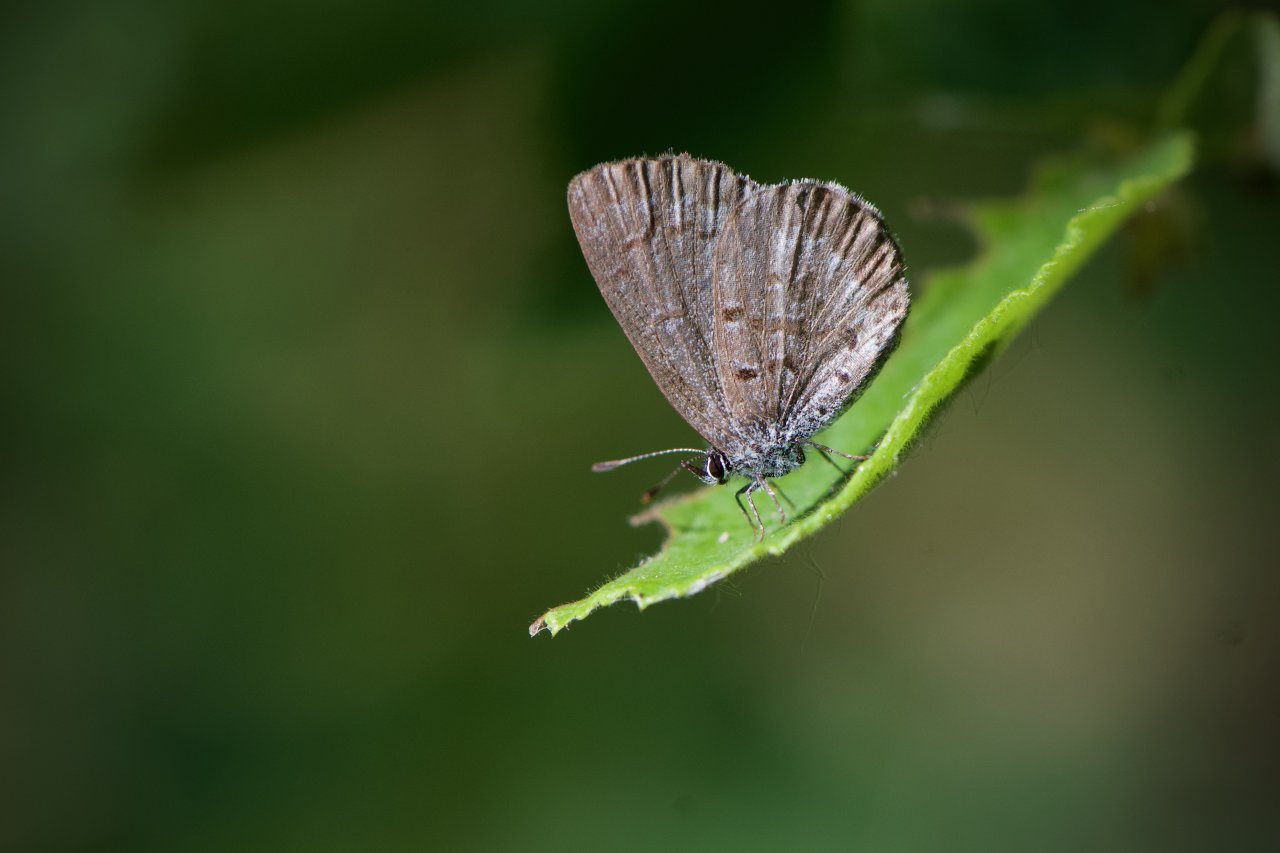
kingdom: Animalia
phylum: Arthropoda
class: Insecta
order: Lepidoptera
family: Lycaenidae
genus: Celastrina
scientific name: Celastrina lucia
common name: Northern Spring Azure
